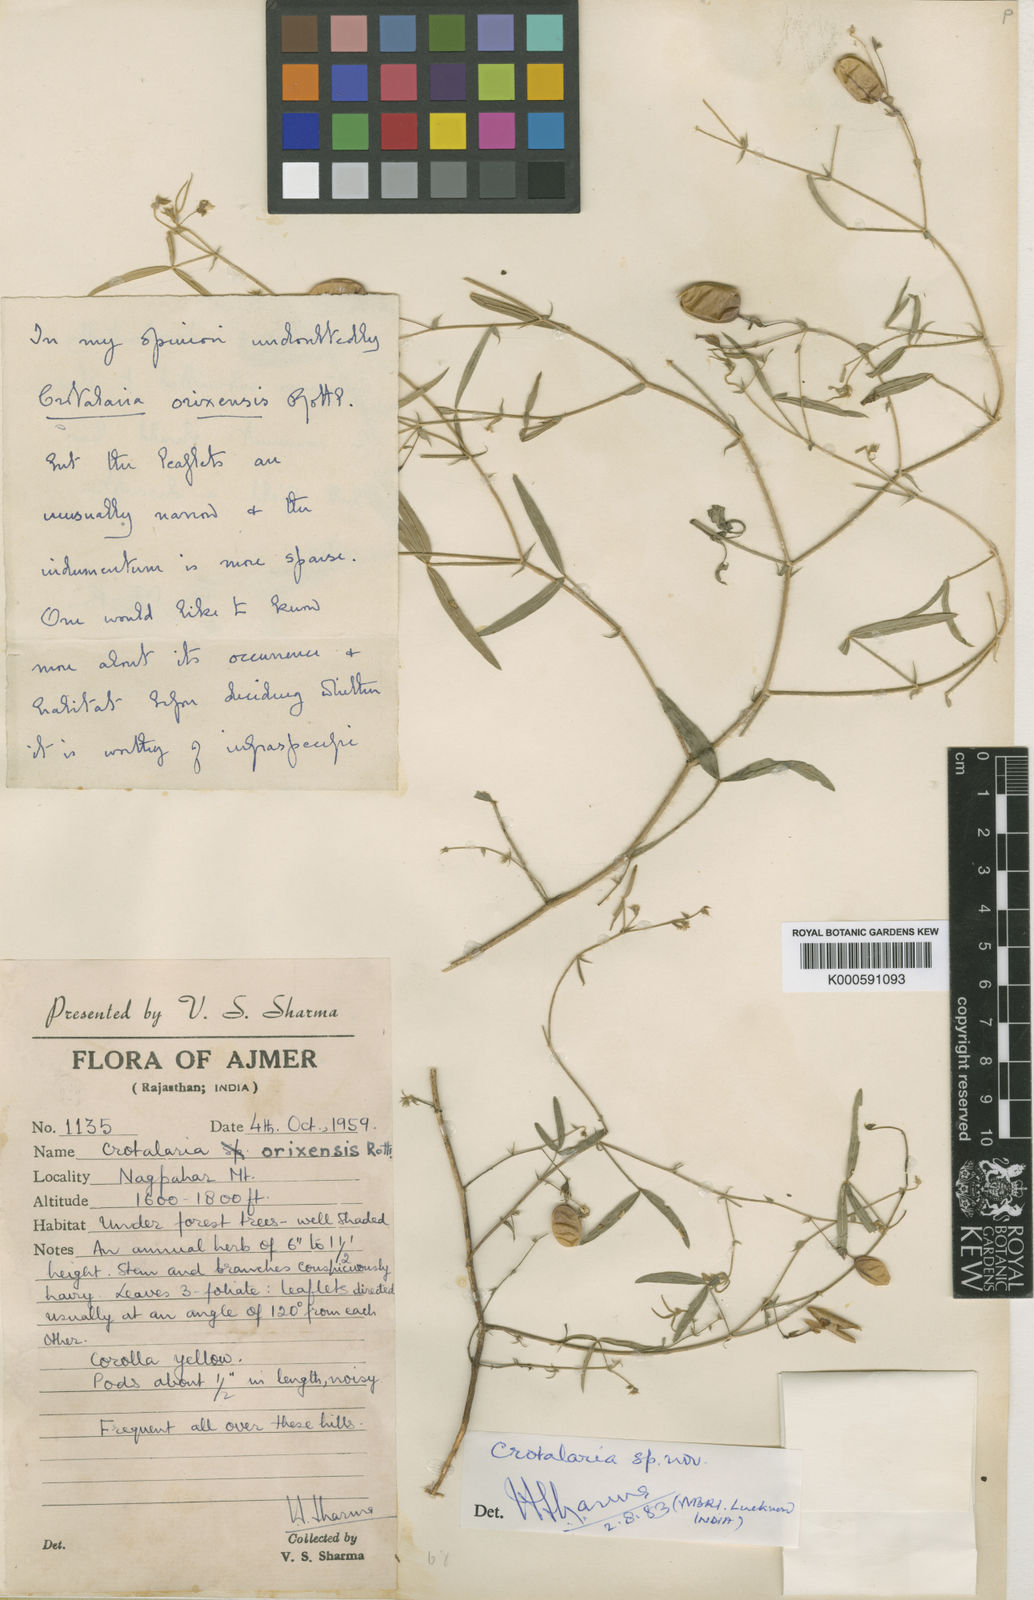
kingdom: Plantae
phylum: Tracheophyta
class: Magnoliopsida
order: Fabales
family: Fabaceae
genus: Crotalaria
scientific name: Crotalaria
